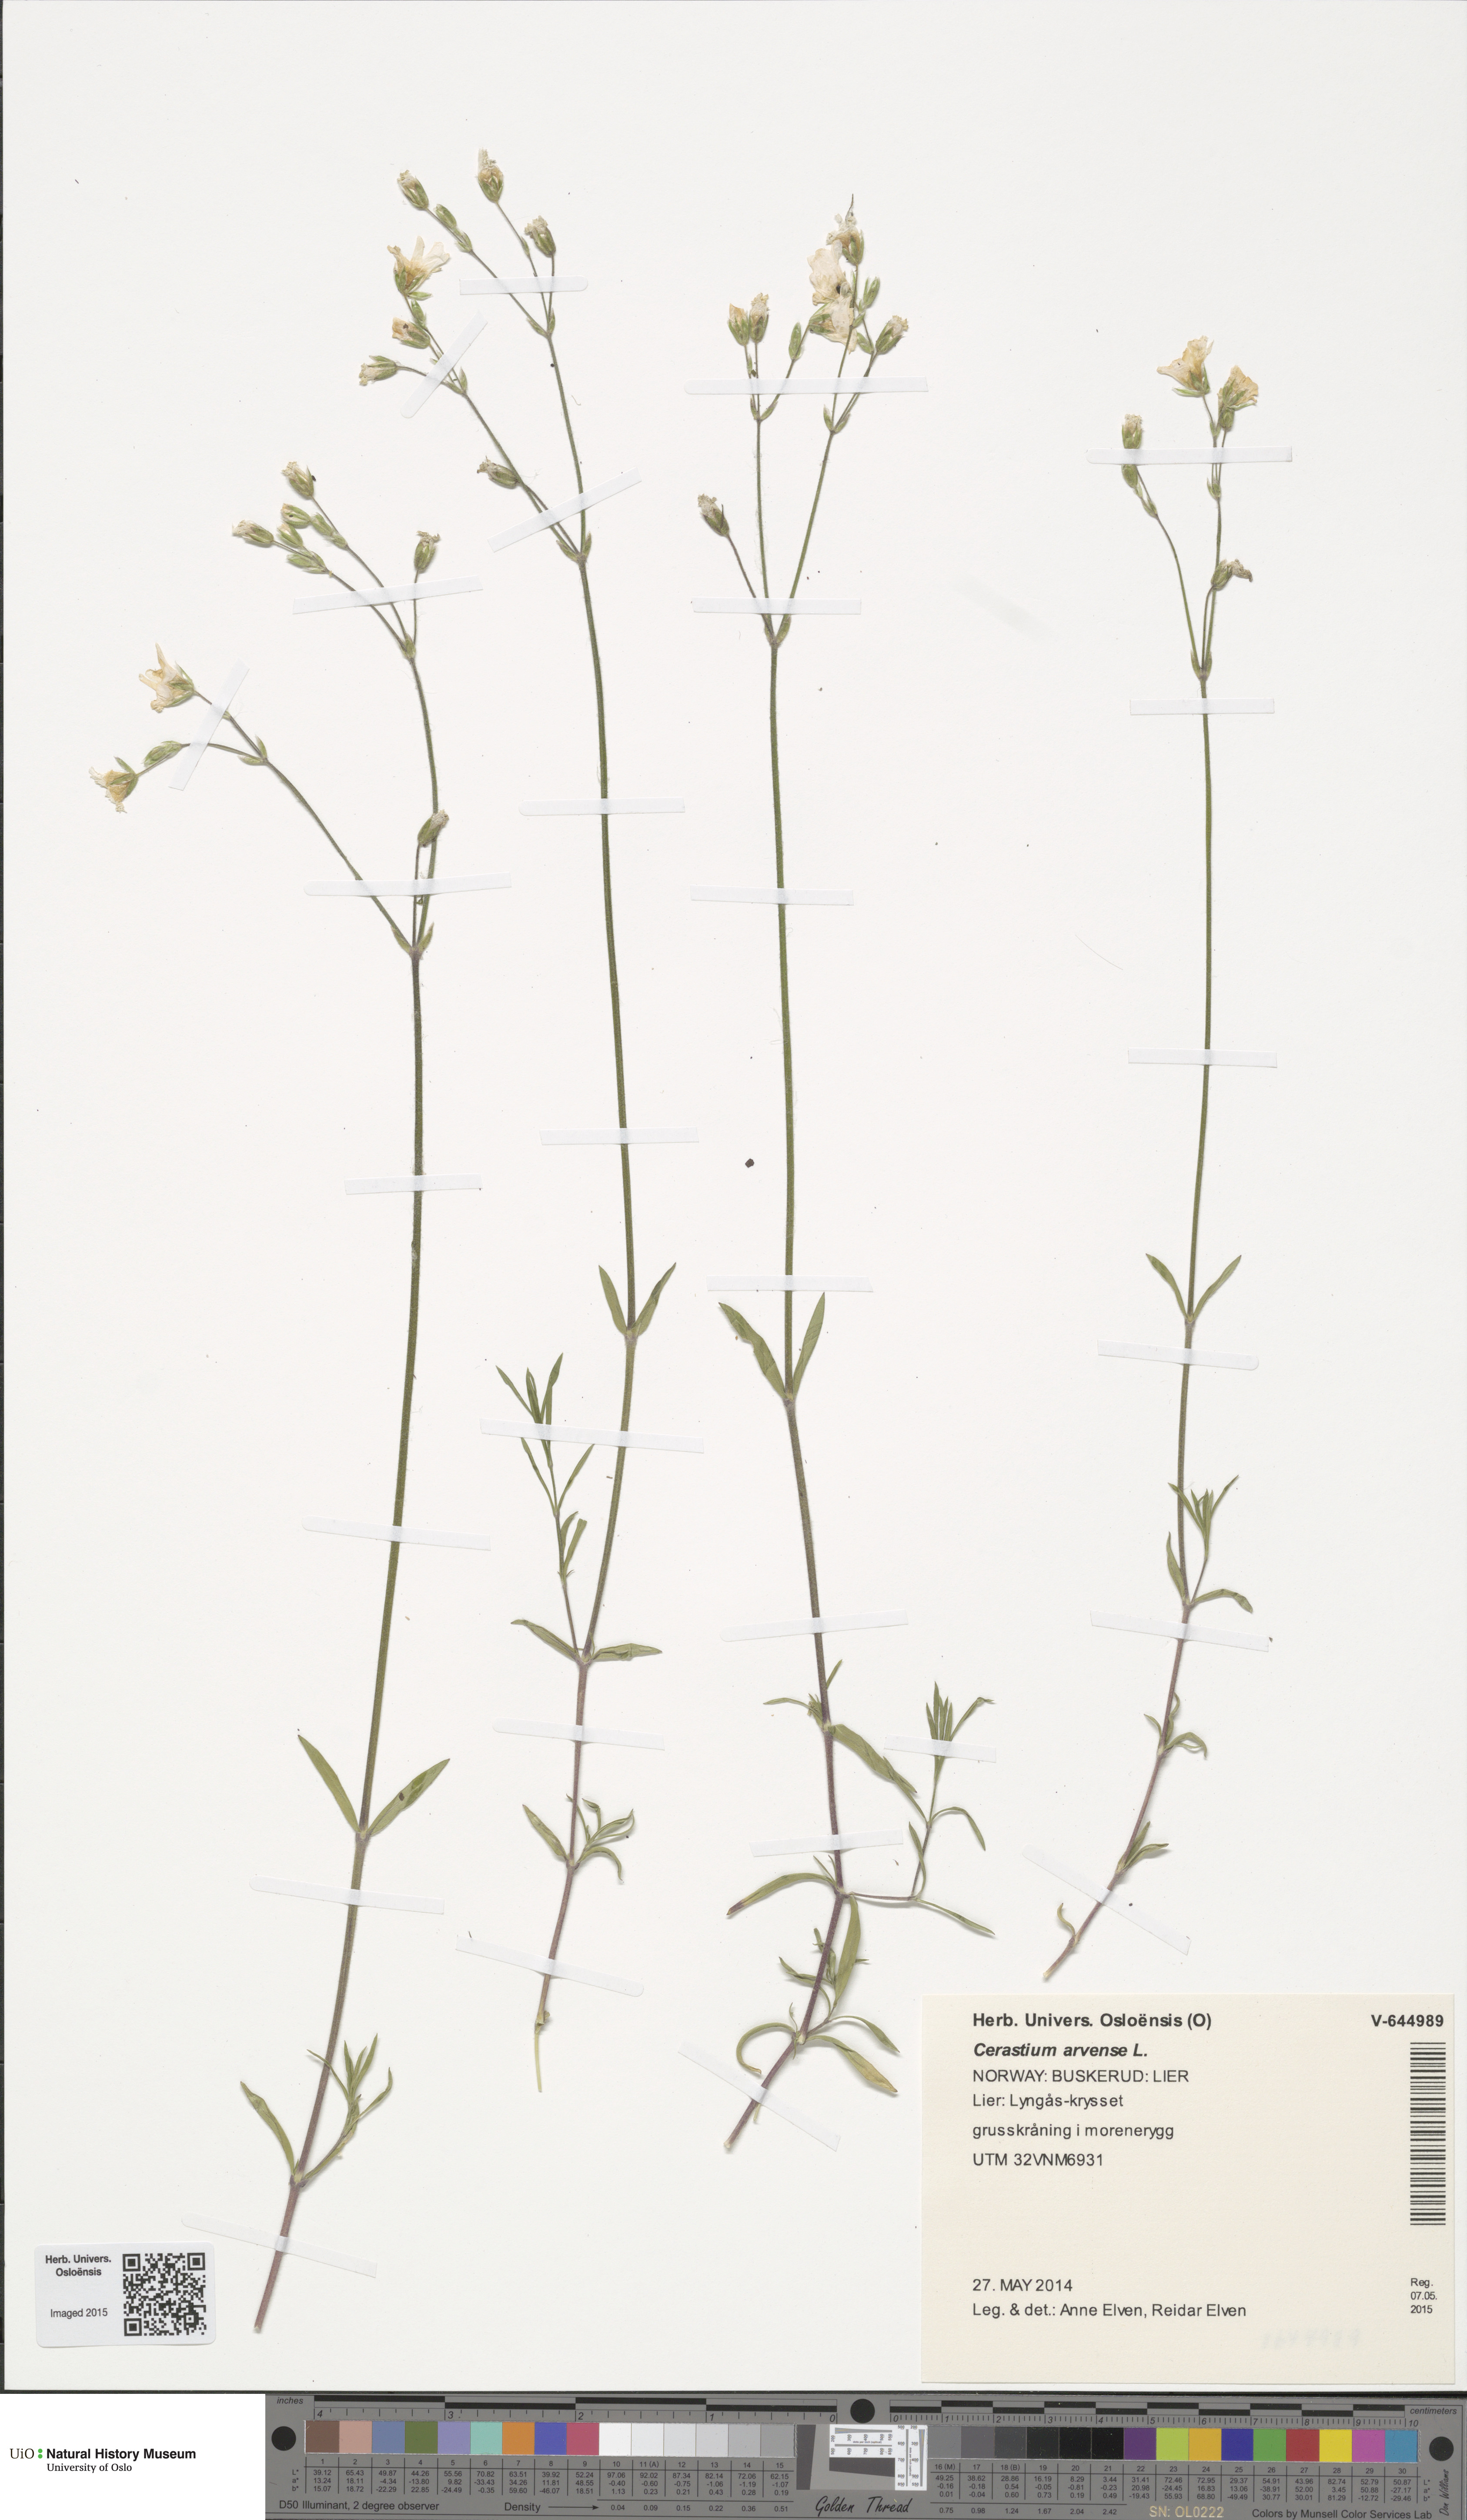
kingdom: Plantae
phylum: Tracheophyta
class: Magnoliopsida
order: Caryophyllales
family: Caryophyllaceae
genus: Cerastium
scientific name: Cerastium arvense
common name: Field mouse-ear
